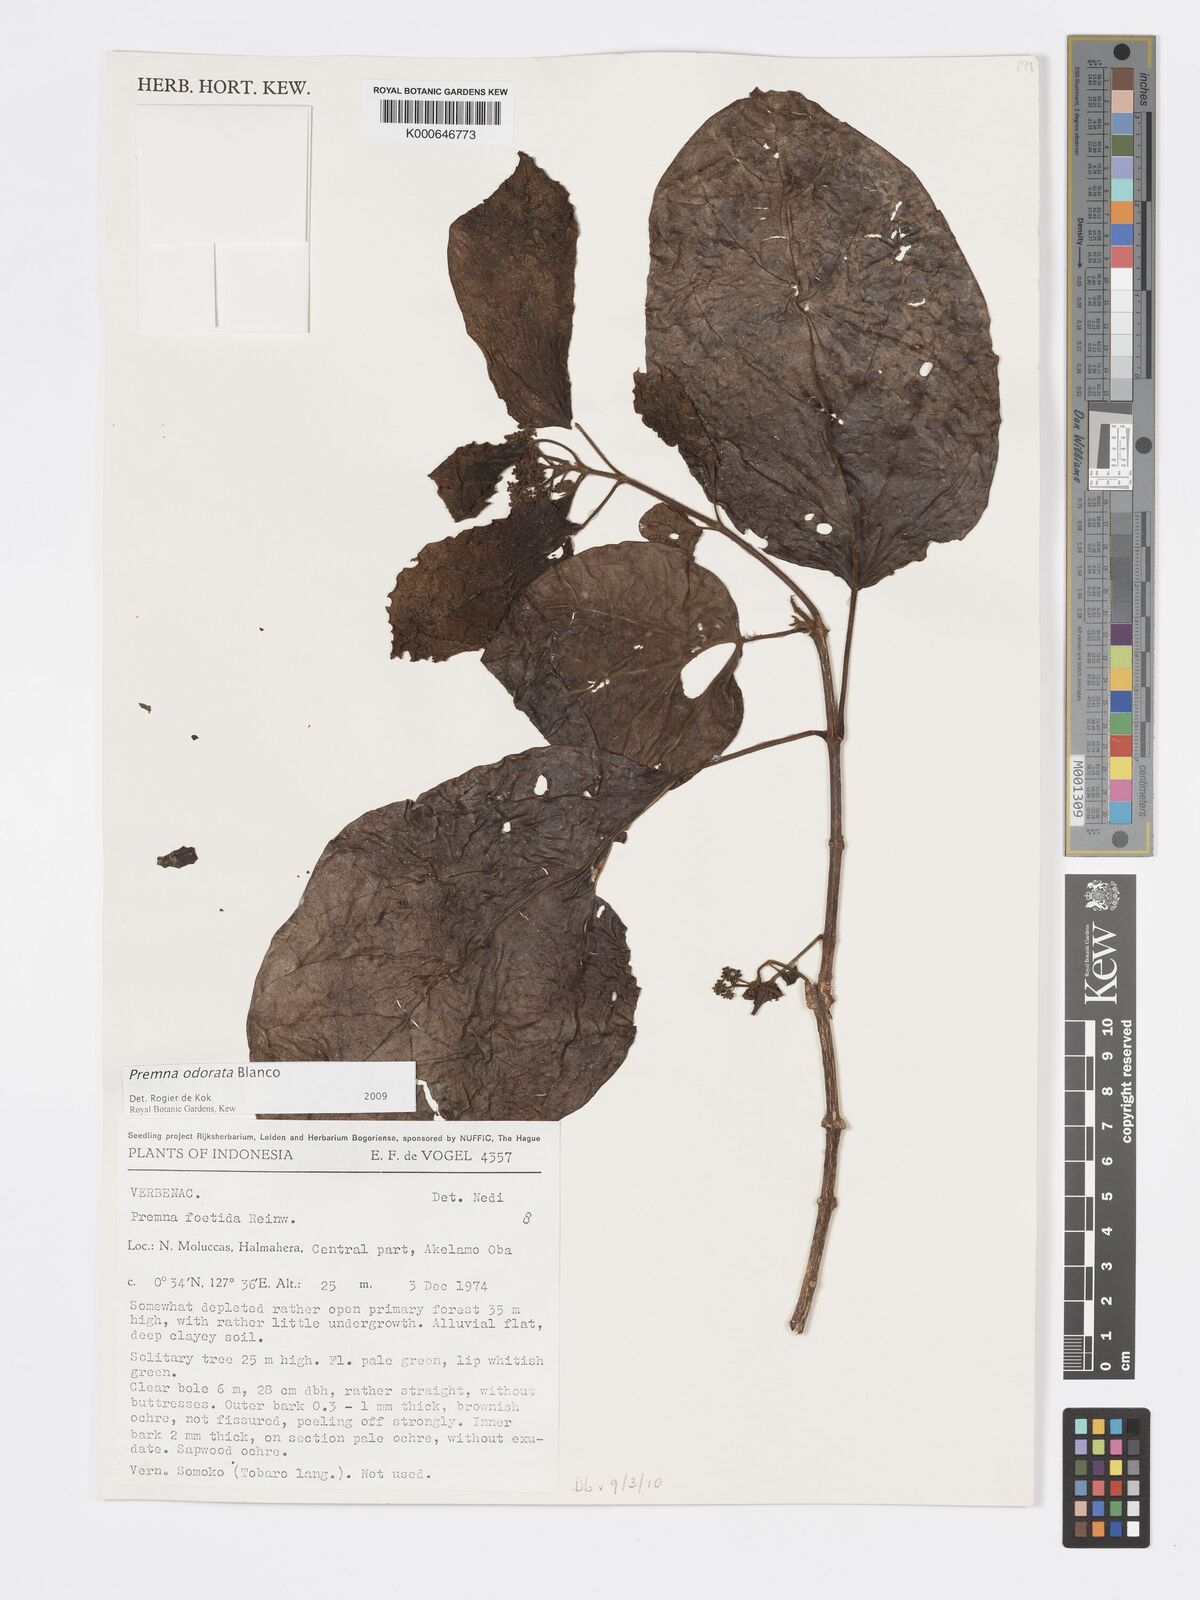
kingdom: Plantae
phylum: Tracheophyta
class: Magnoliopsida
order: Lamiales
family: Lamiaceae
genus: Premna
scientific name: Premna odorata
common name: Fragrant premna
